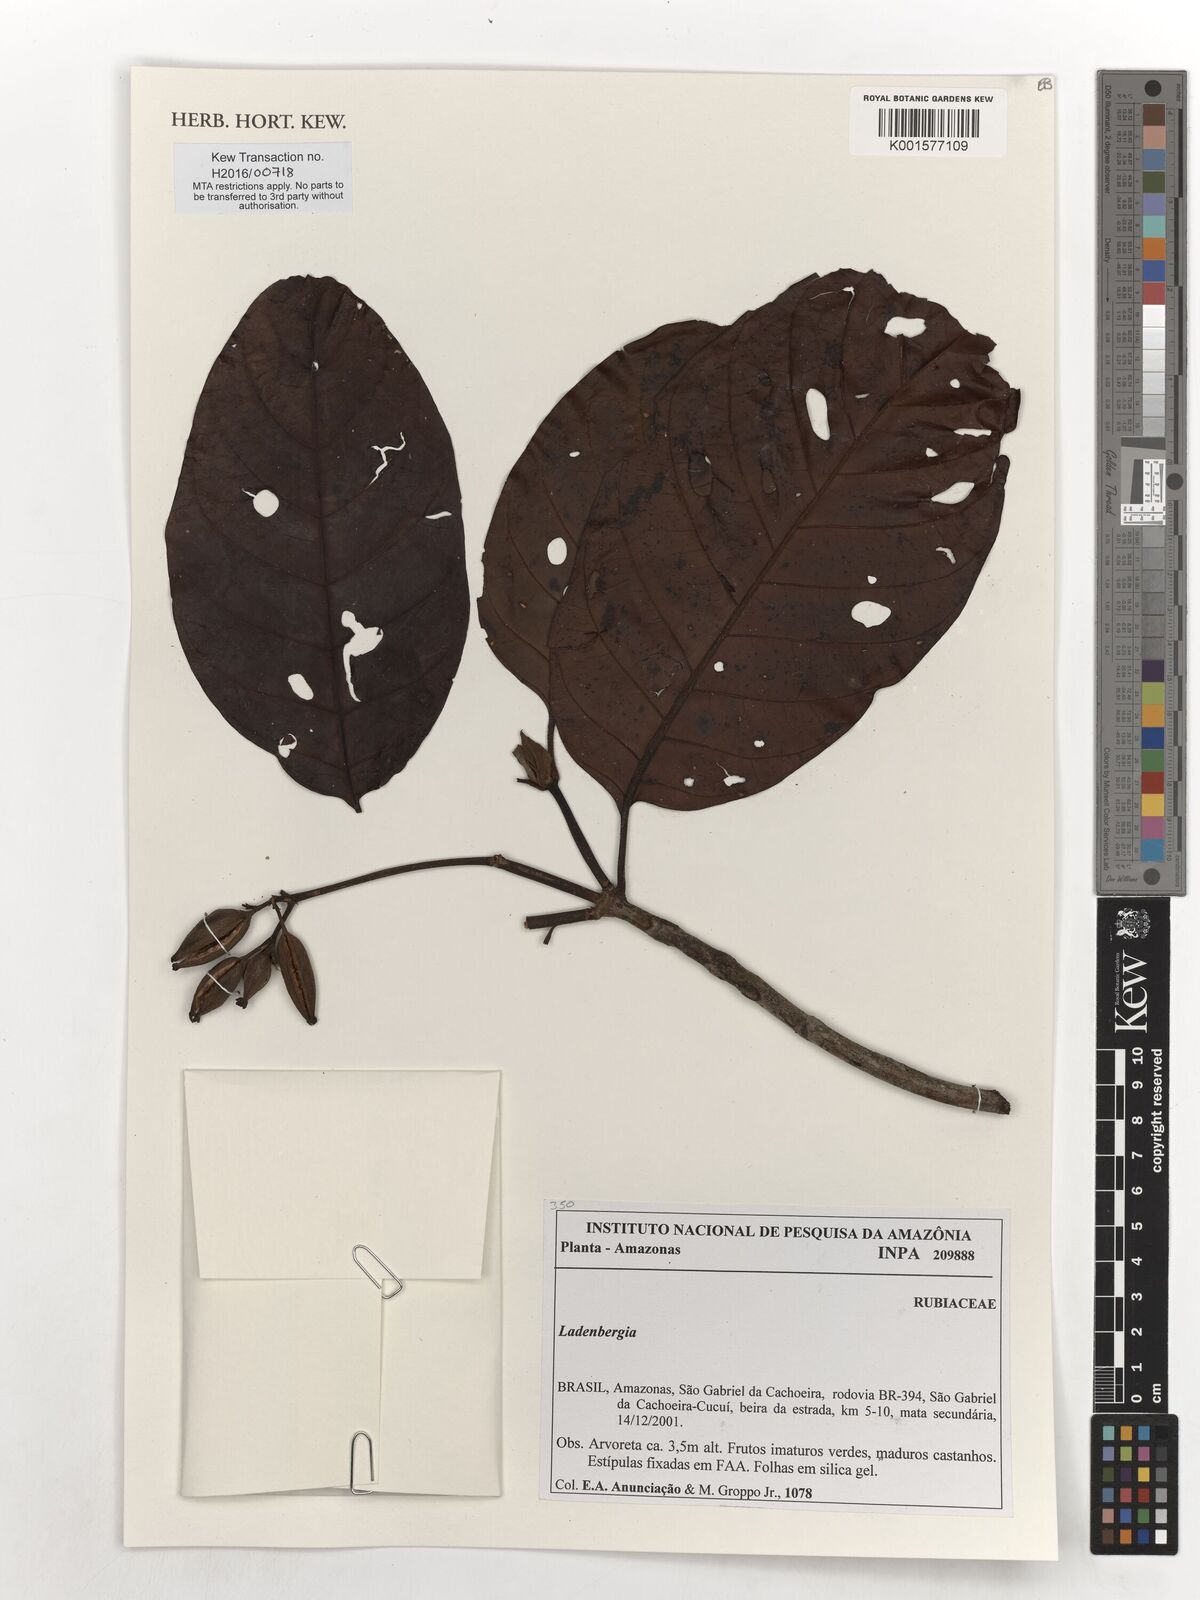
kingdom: Plantae
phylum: Tracheophyta
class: Magnoliopsida
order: Gentianales
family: Rubiaceae
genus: Ladenbergia
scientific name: Ladenbergia
